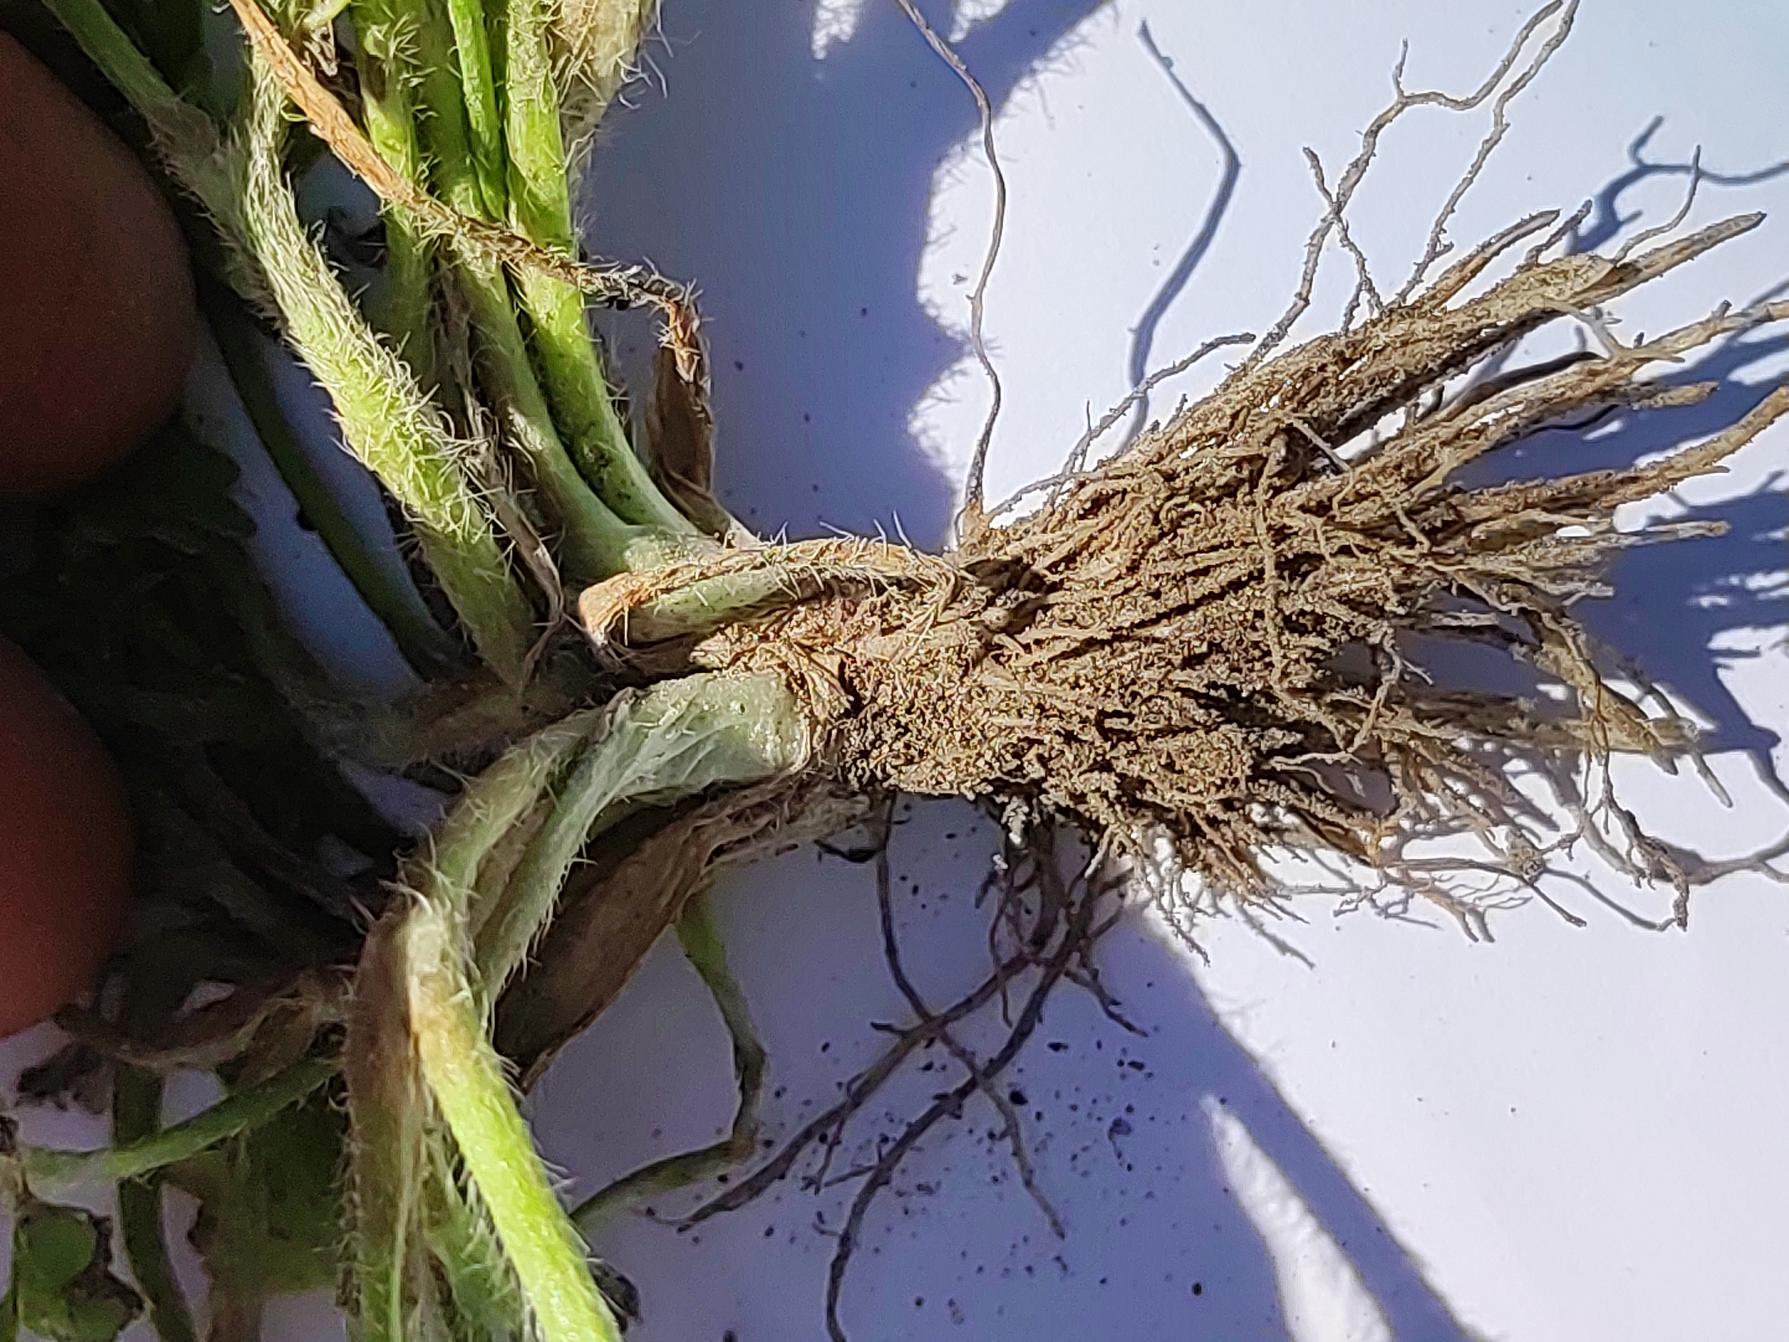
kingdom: Plantae
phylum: Tracheophyta
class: Magnoliopsida
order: Ranunculales
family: Ranunculaceae
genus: Ranunculus
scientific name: Ranunculus sardous
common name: Stivhåret ranunkel
